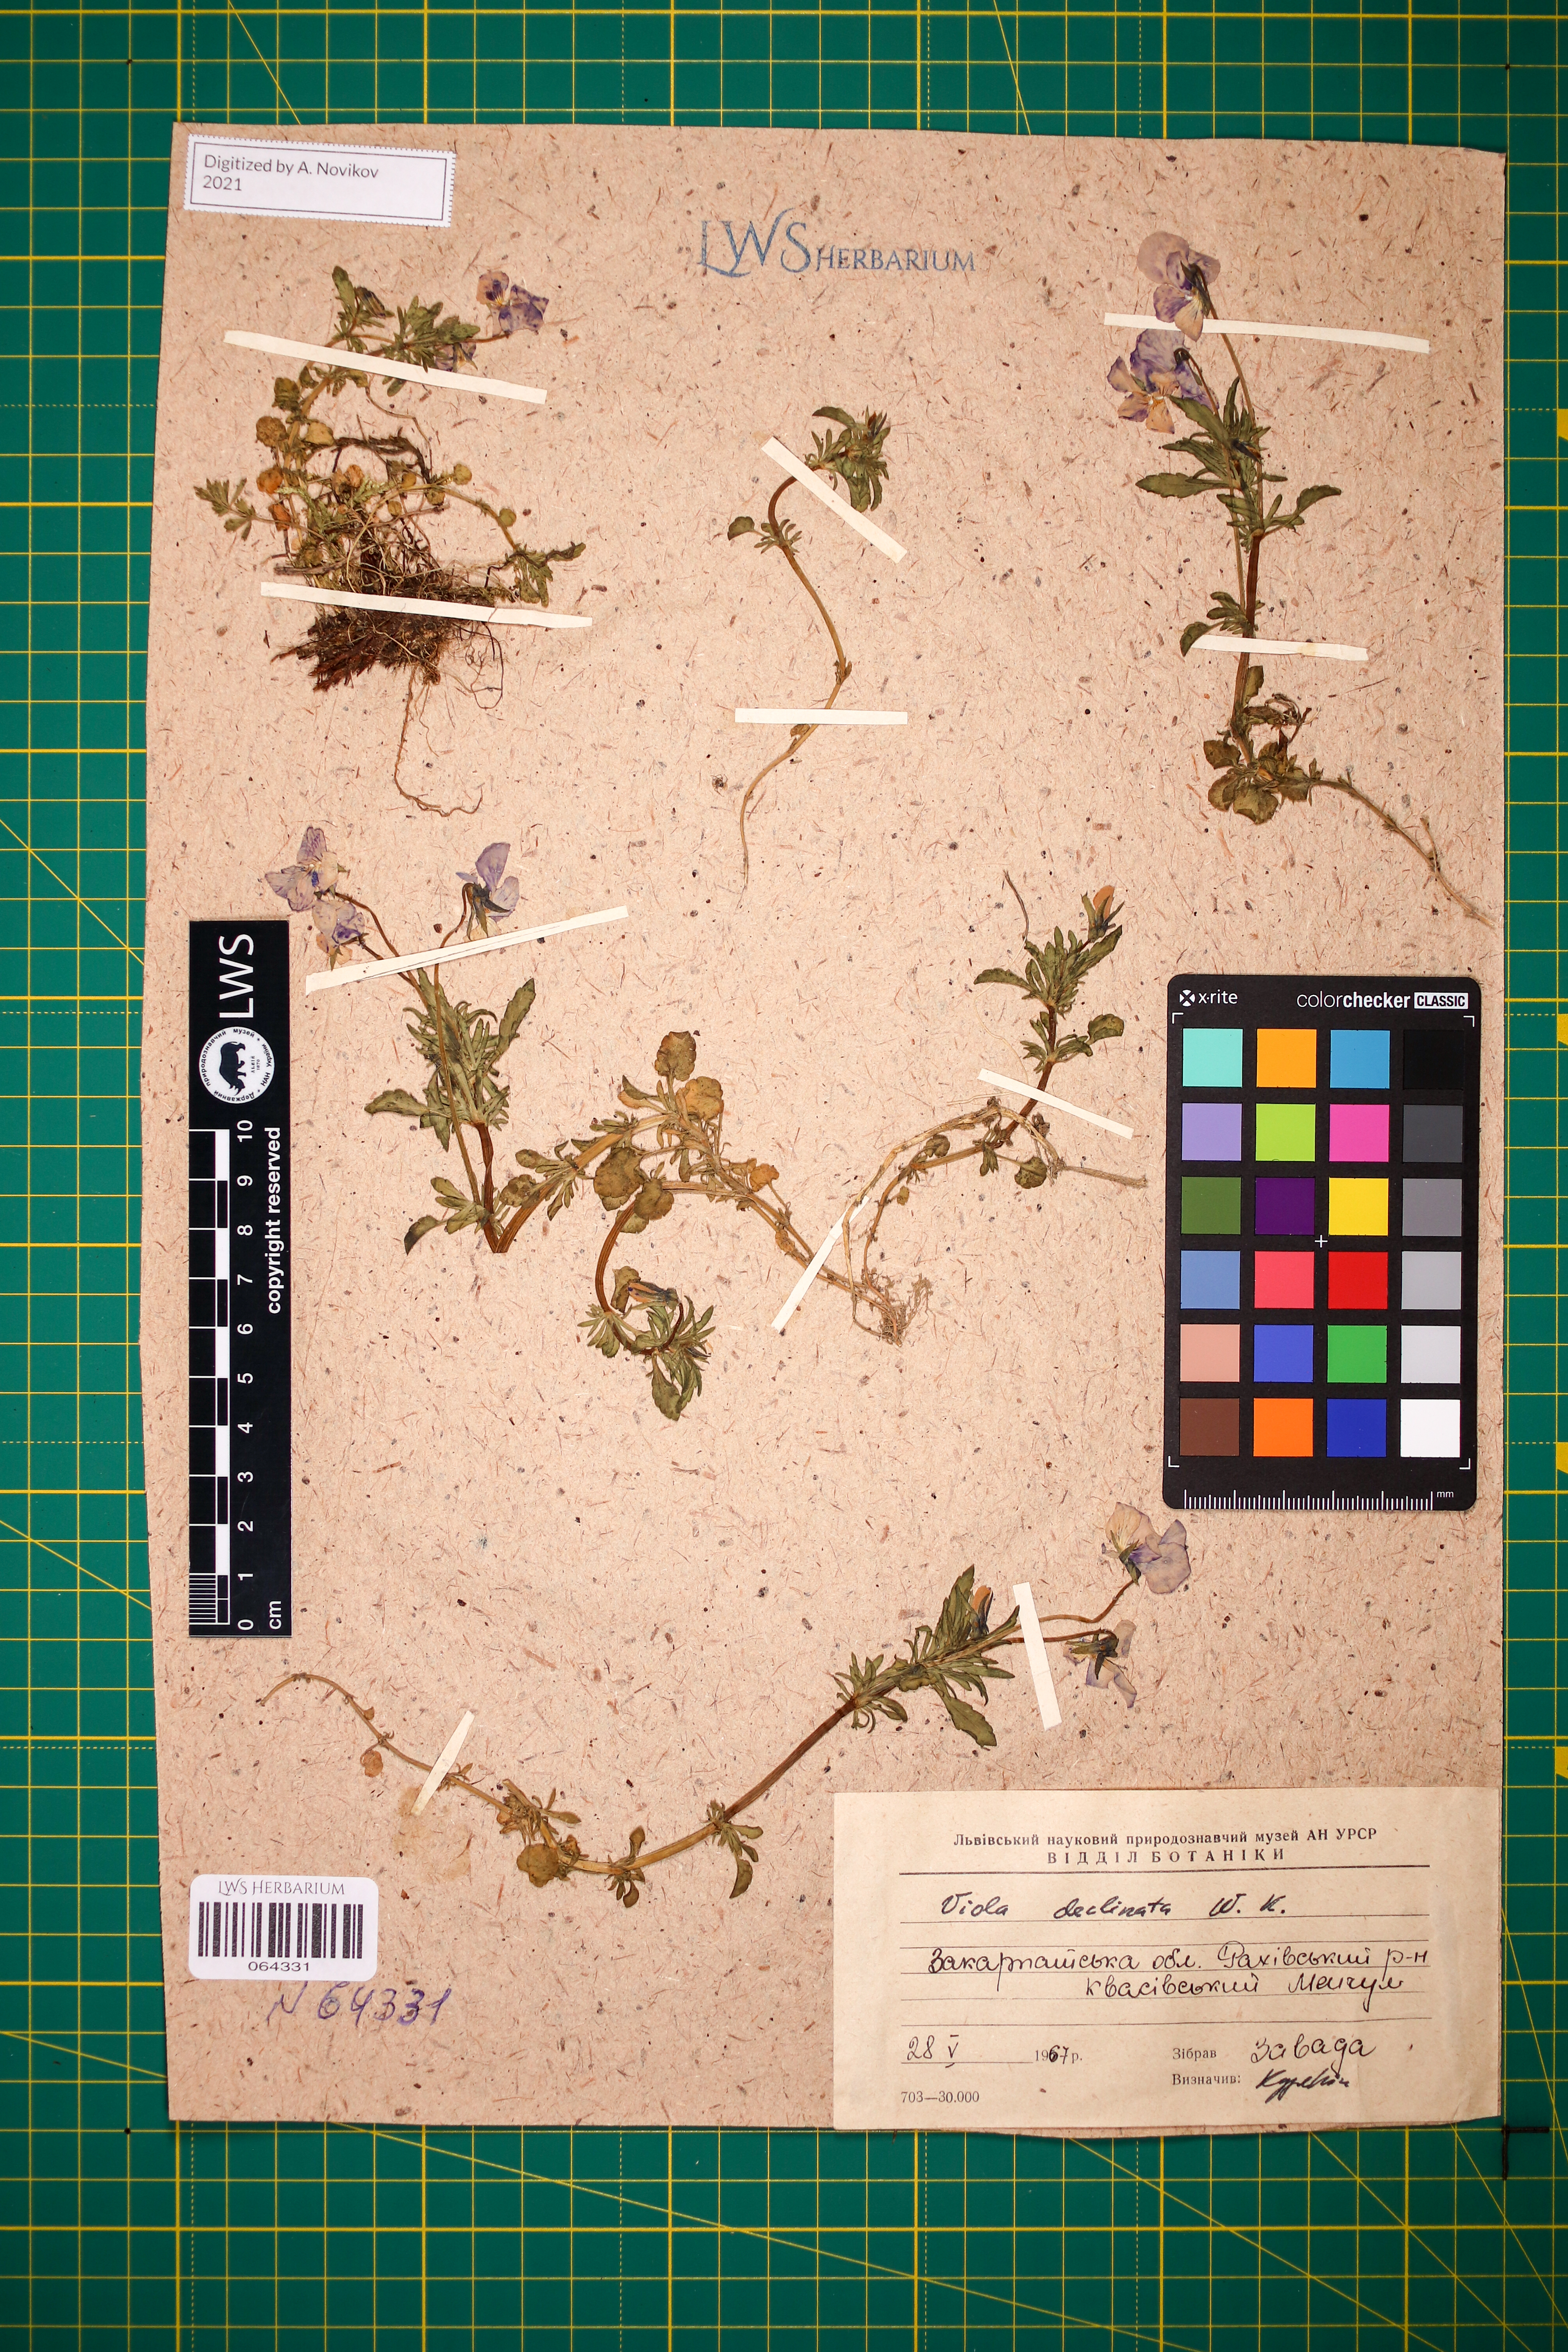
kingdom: Plantae
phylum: Tracheophyta
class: Magnoliopsida
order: Malpighiales
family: Violaceae
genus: Viola
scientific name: Viola declinata
